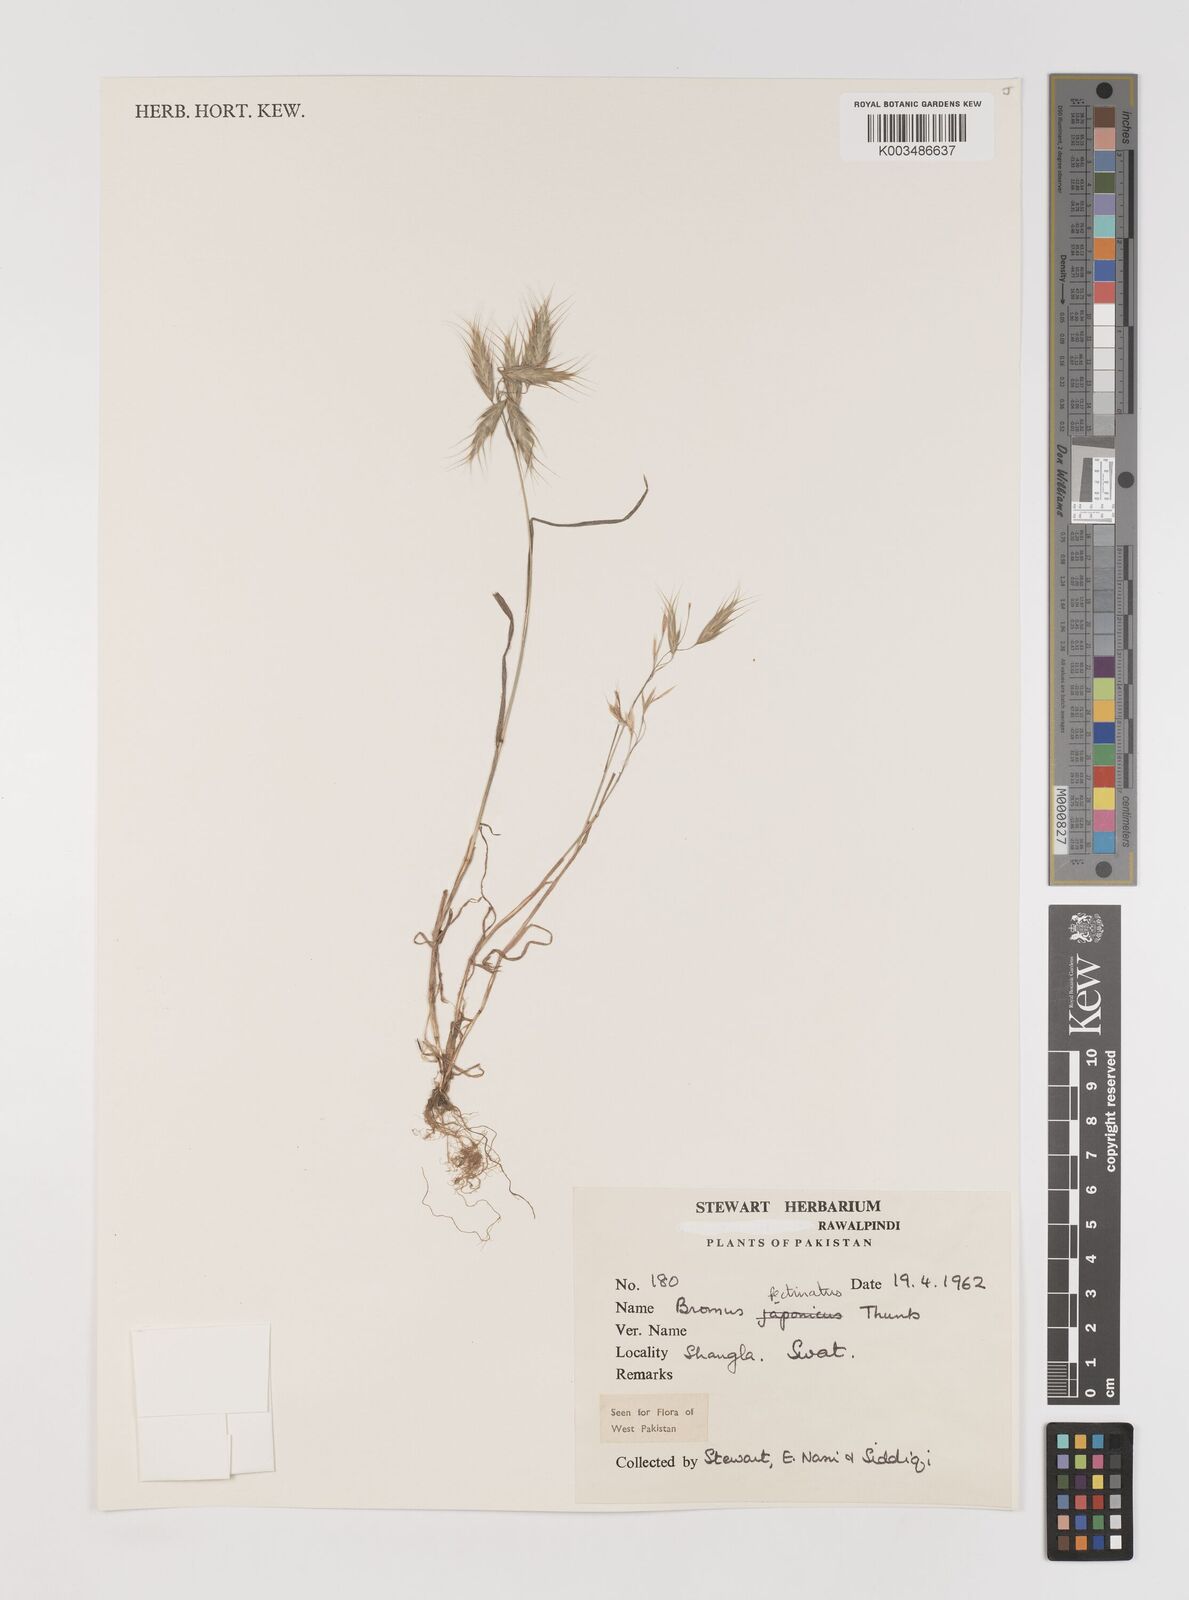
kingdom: Plantae
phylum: Tracheophyta
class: Liliopsida
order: Poales
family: Poaceae
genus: Bromus
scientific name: Bromus pectinatus
